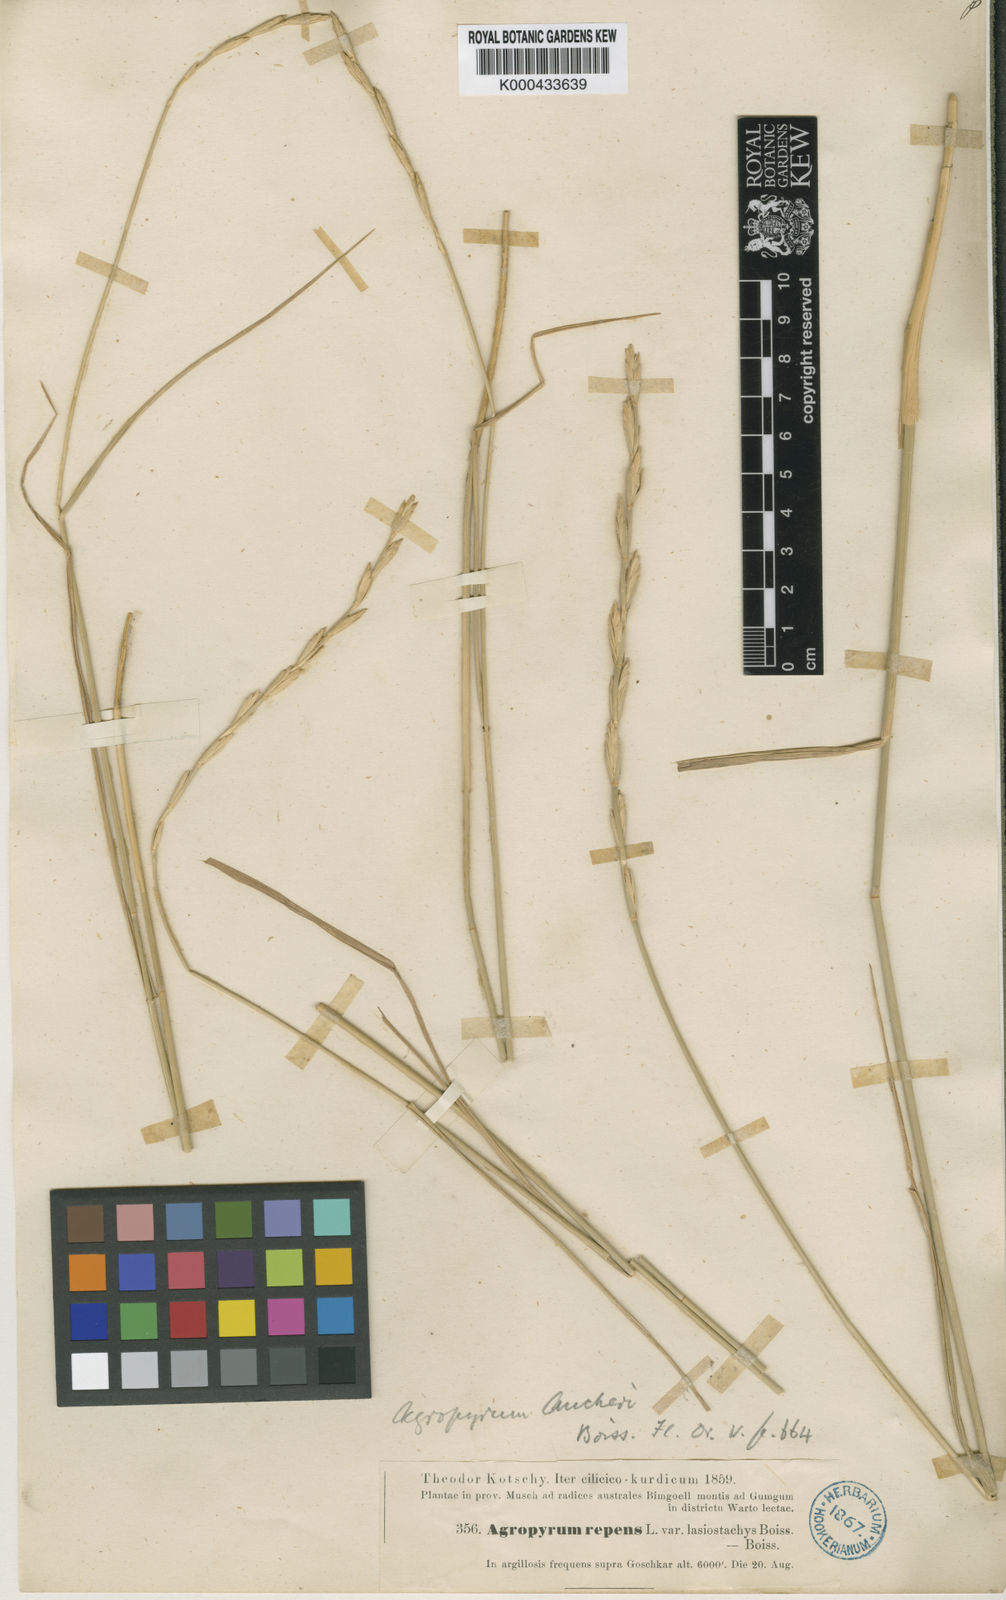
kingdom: Plantae
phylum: Tracheophyta
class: Liliopsida
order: Poales
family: Poaceae
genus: Thinopyrum
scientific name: Thinopyrum intermedium
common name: Intermediate wheatgrass
